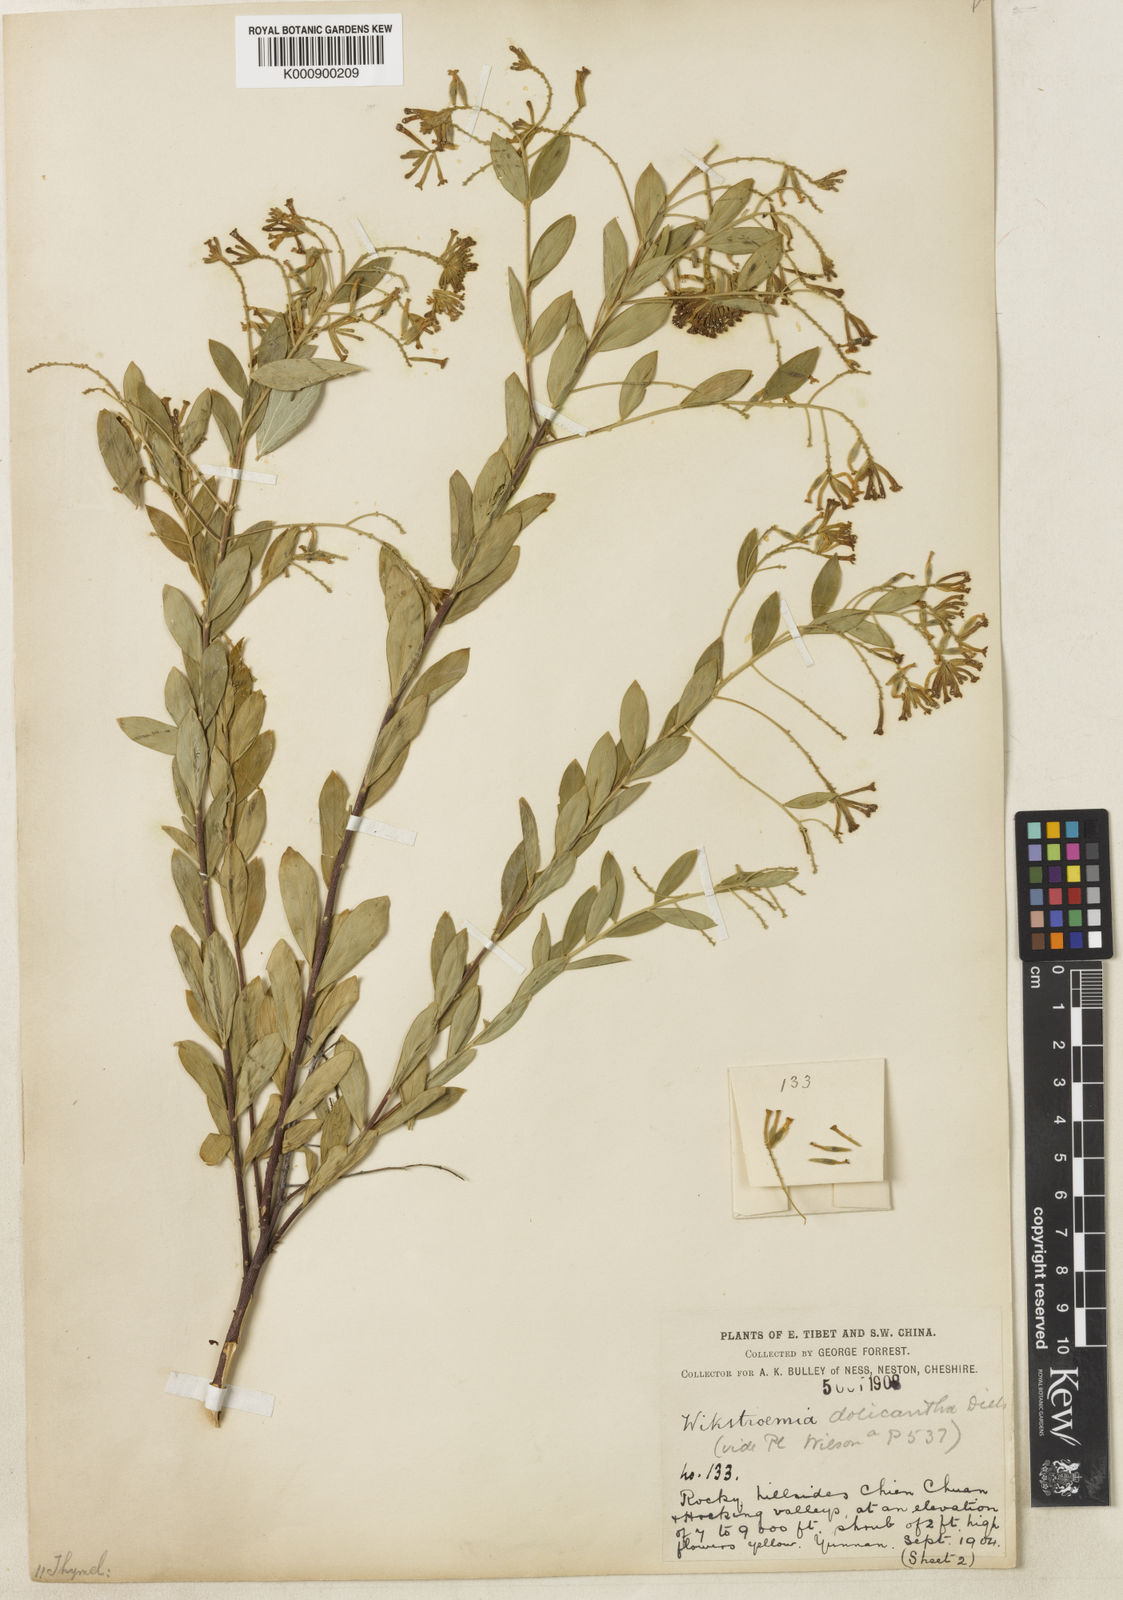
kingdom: Plantae
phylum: Tracheophyta
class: Magnoliopsida
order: Malvales
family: Thymelaeaceae
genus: Wikstroemia
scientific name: Wikstroemia dolichantha
